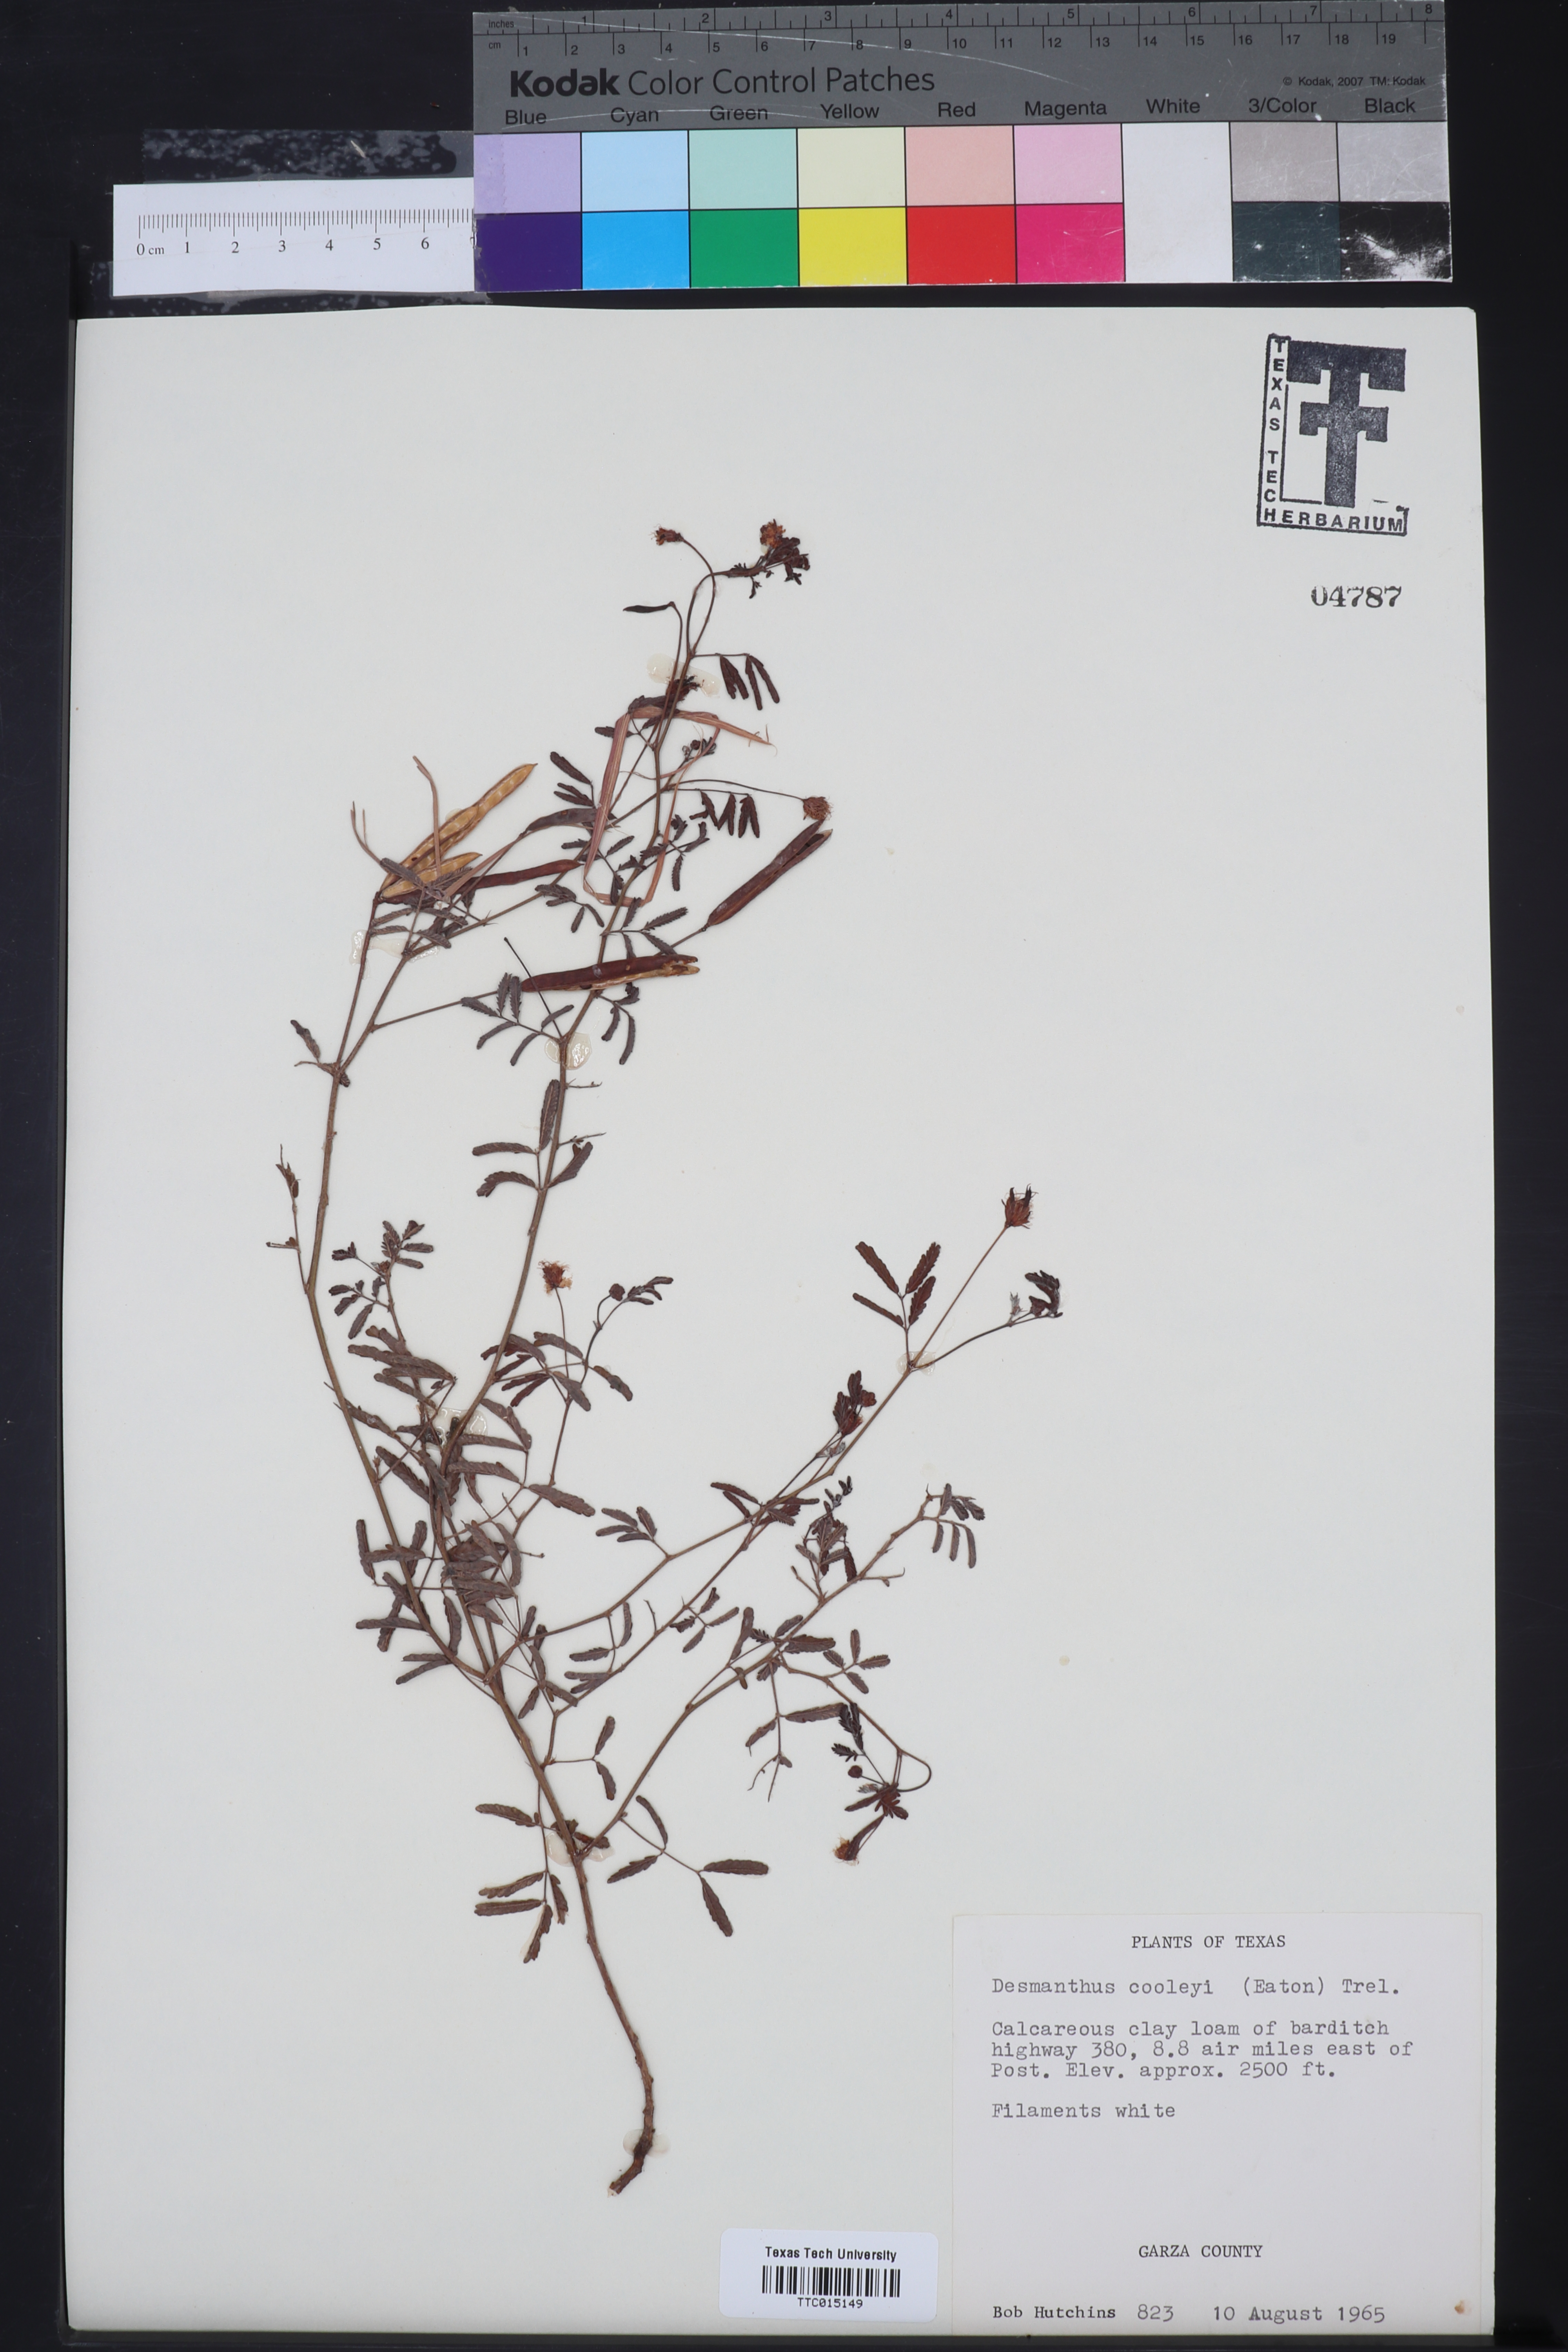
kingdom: Plantae
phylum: Tracheophyta
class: Magnoliopsida
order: Fabales
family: Fabaceae
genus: Desmanthus
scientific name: Desmanthus cooleyi
